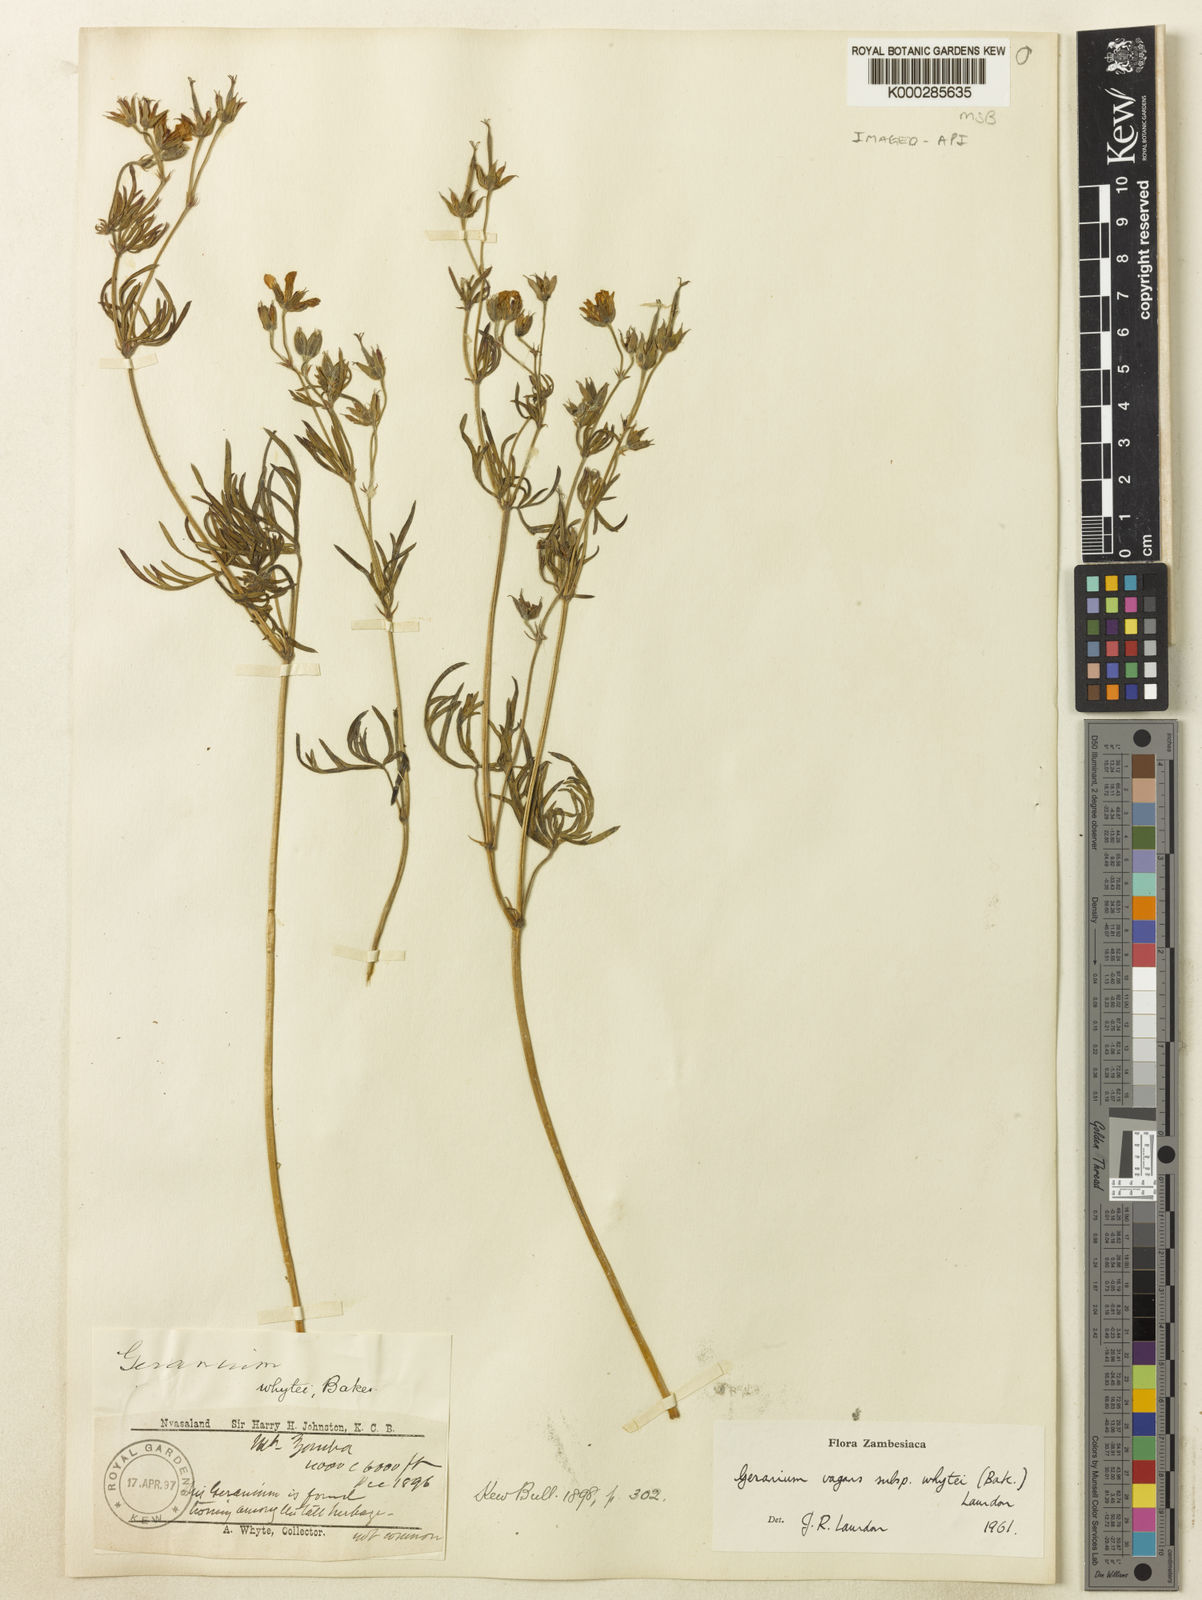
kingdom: Plantae
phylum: Tracheophyta
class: Magnoliopsida
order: Geraniales
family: Geraniaceae
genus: Geranium
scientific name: Geranium vagans
